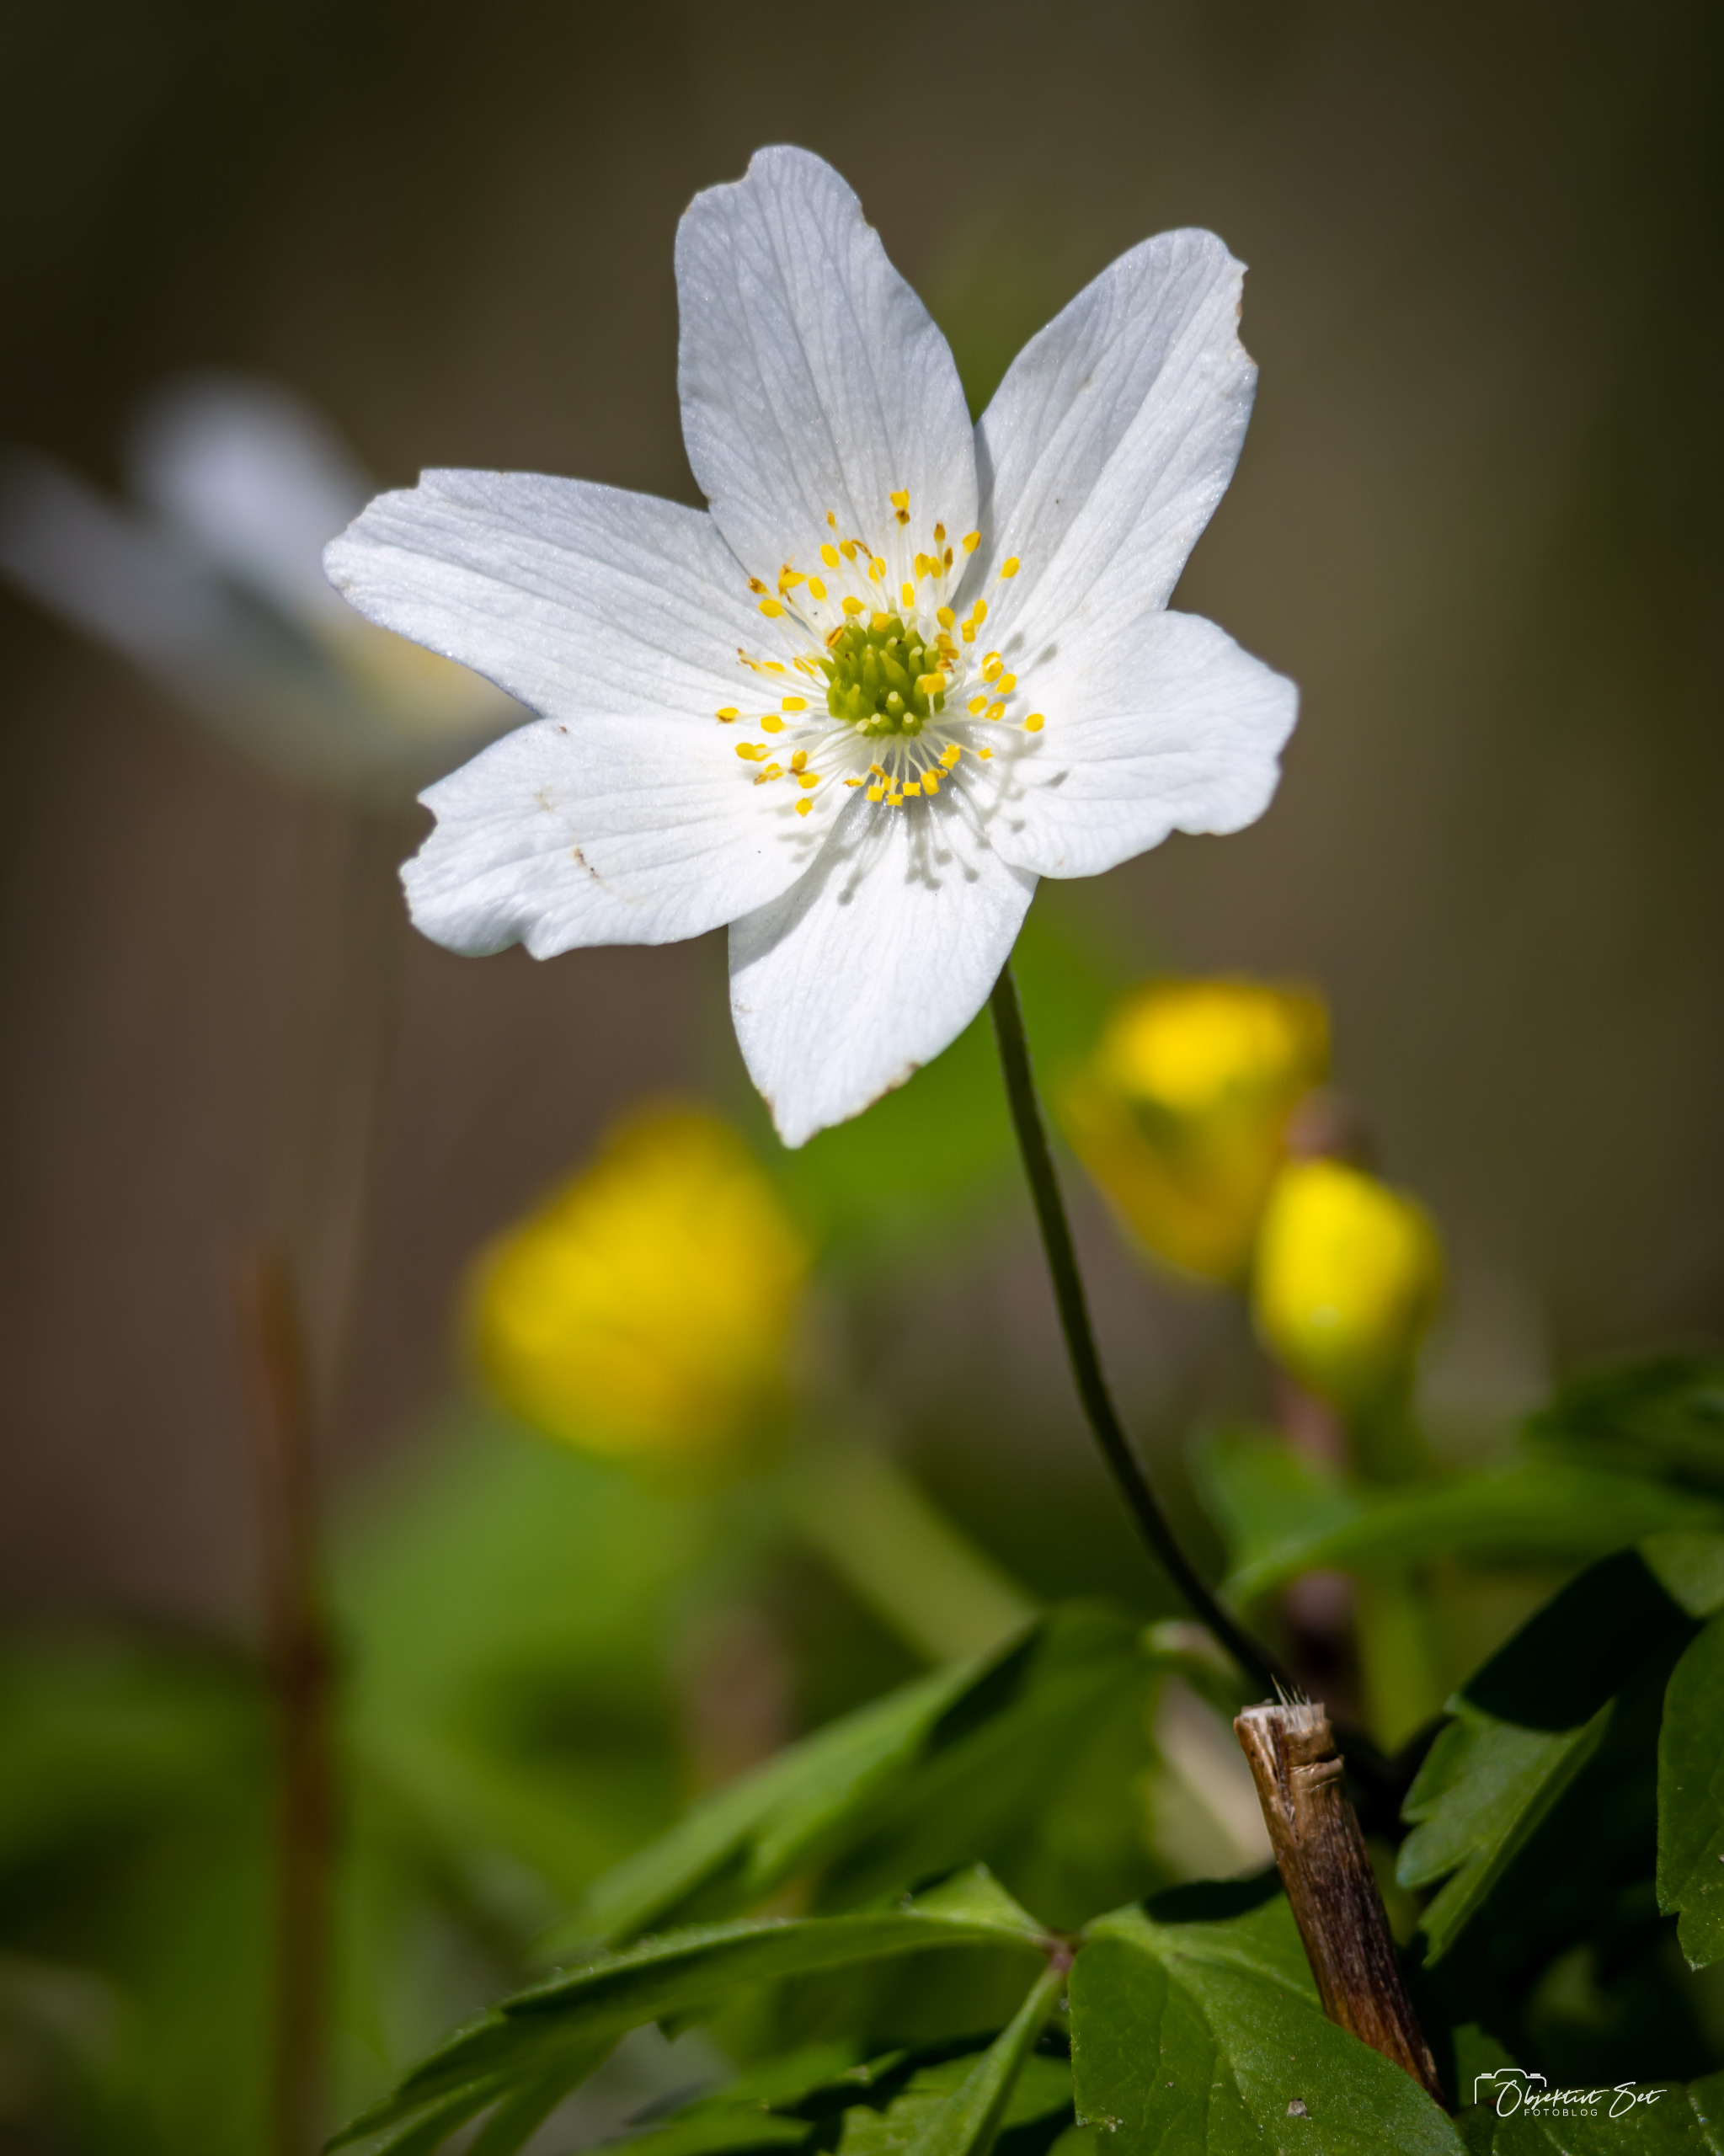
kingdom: Plantae
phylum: Tracheophyta
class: Magnoliopsida
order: Ranunculales
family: Ranunculaceae
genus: Anemone
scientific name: Anemone nemorosa
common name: Hvid anemone
